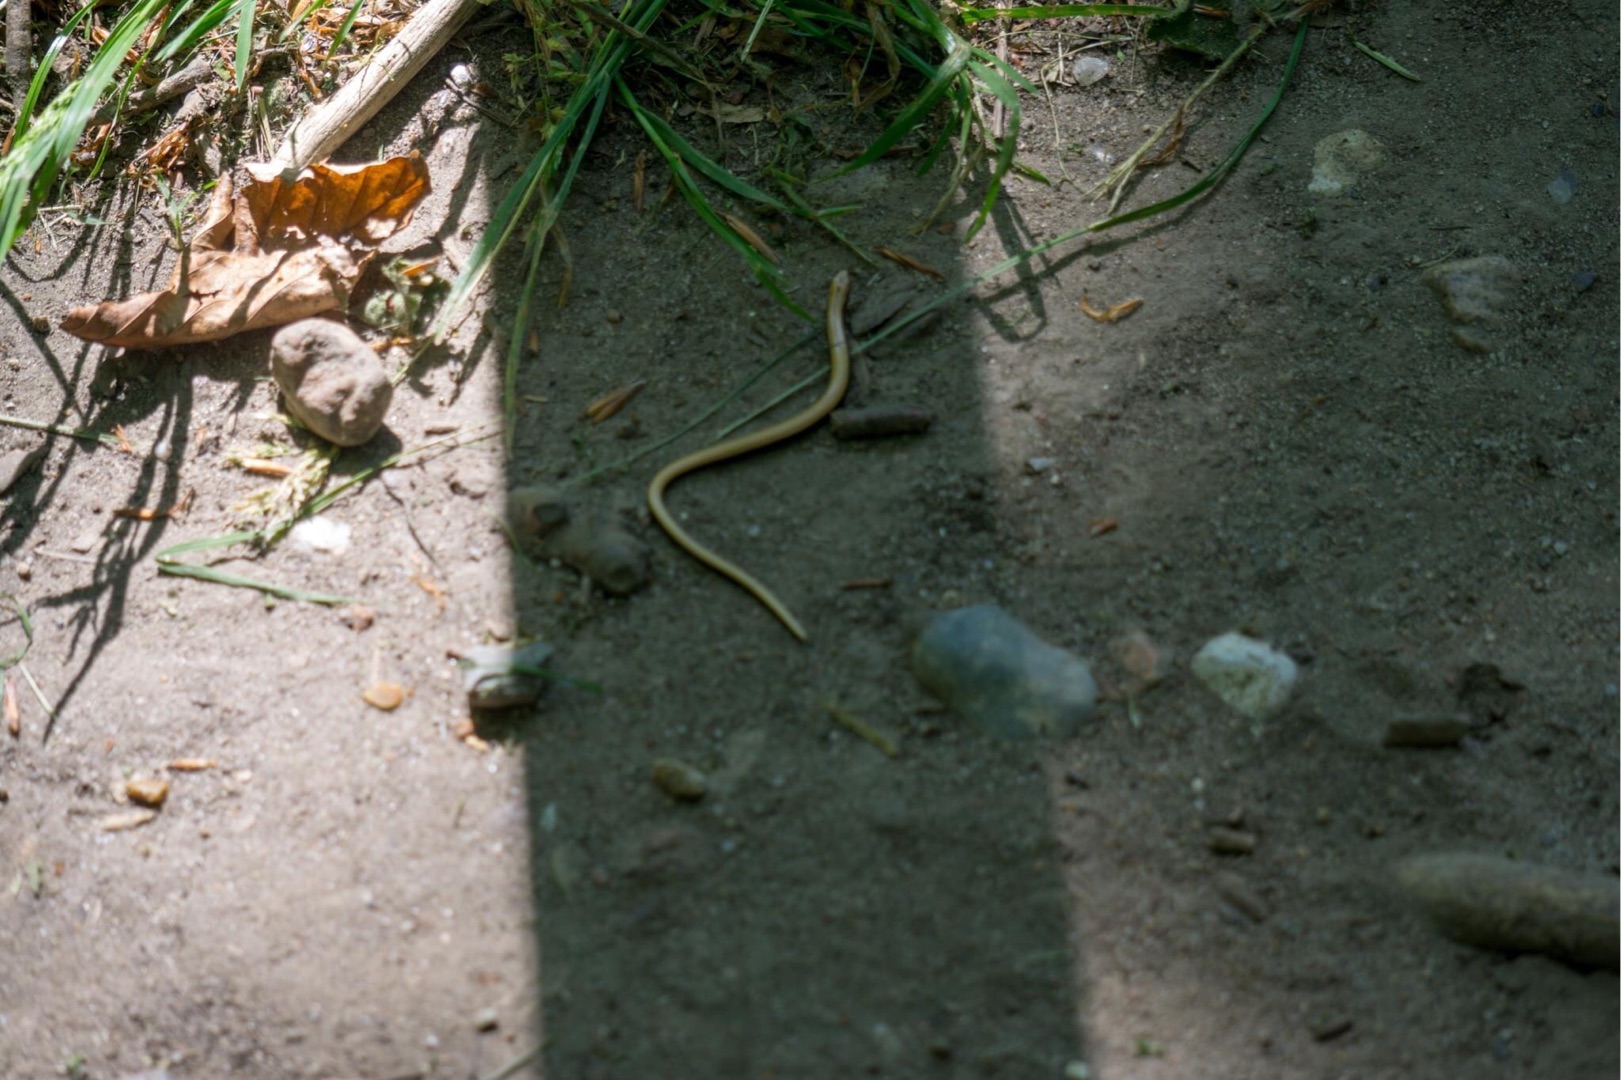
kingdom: Animalia
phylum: Chordata
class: Squamata
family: Anguidae
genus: Anguis
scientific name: Anguis fragilis
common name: Stålorm
